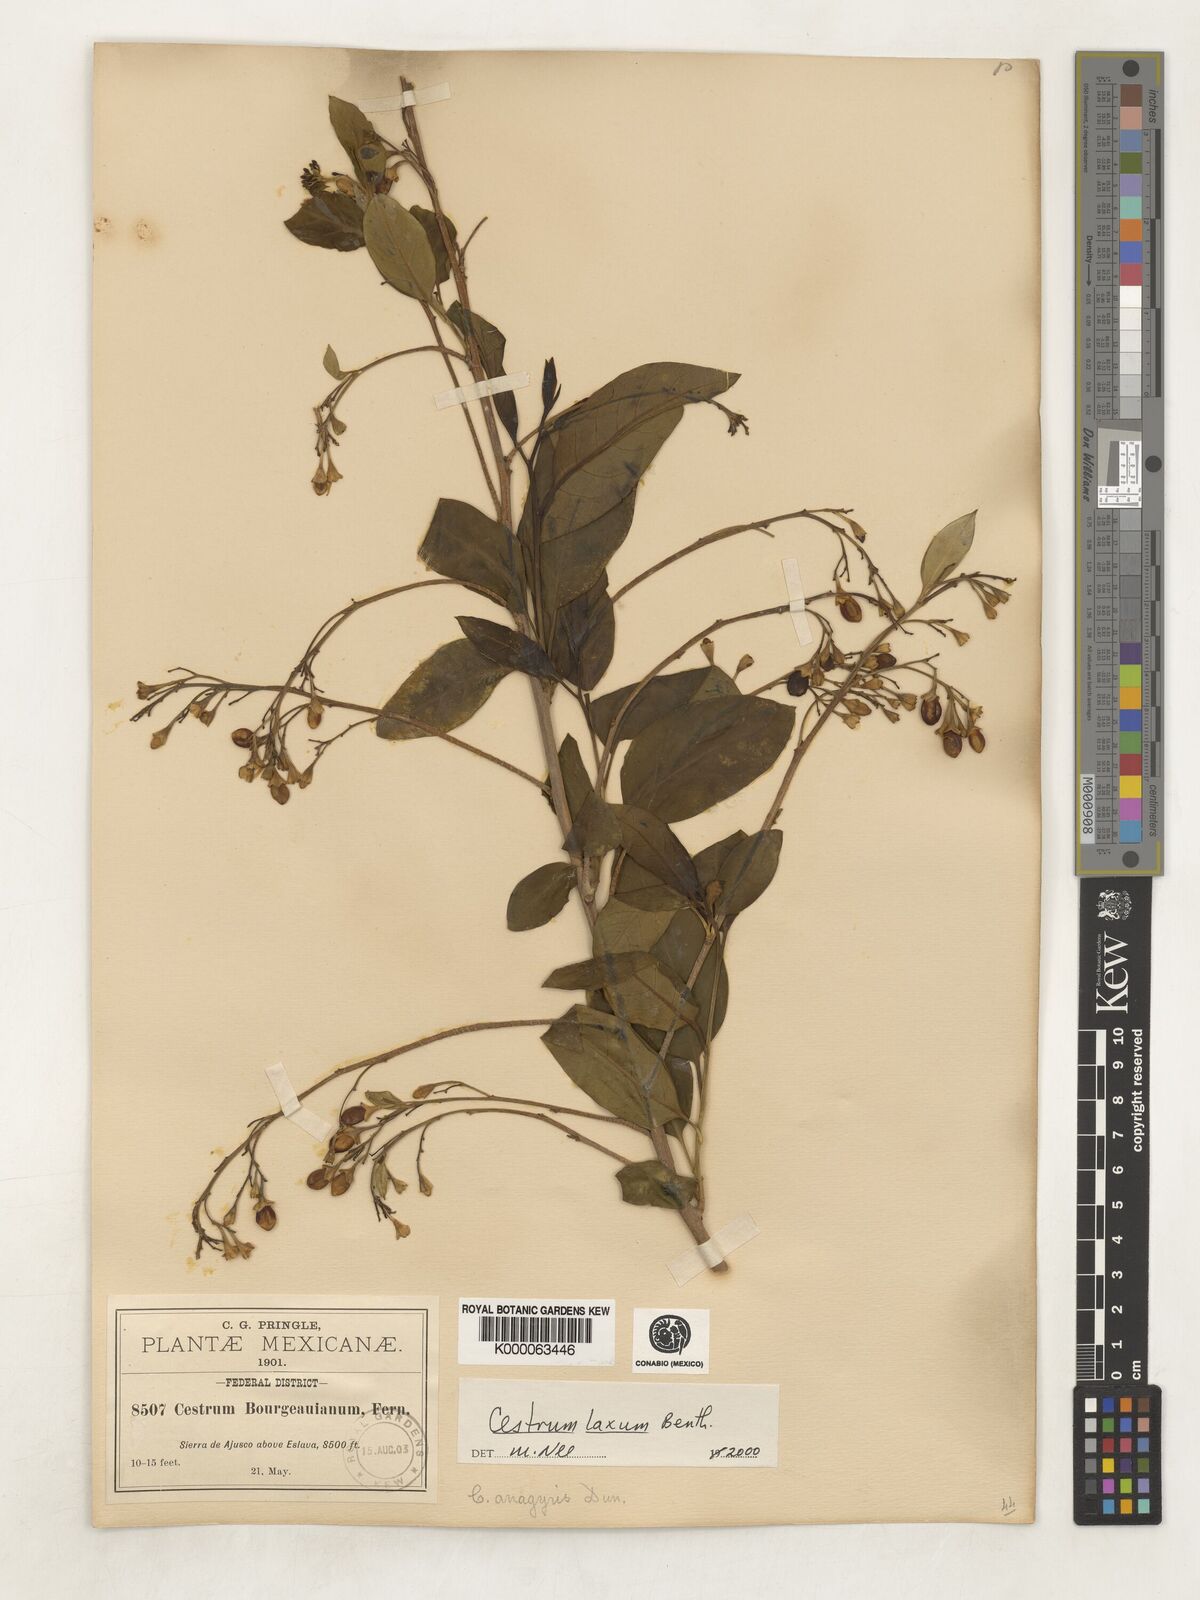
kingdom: Plantae
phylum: Tracheophyta
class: Magnoliopsida
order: Solanales
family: Solanaceae
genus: Cestrum
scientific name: Cestrum laxum
